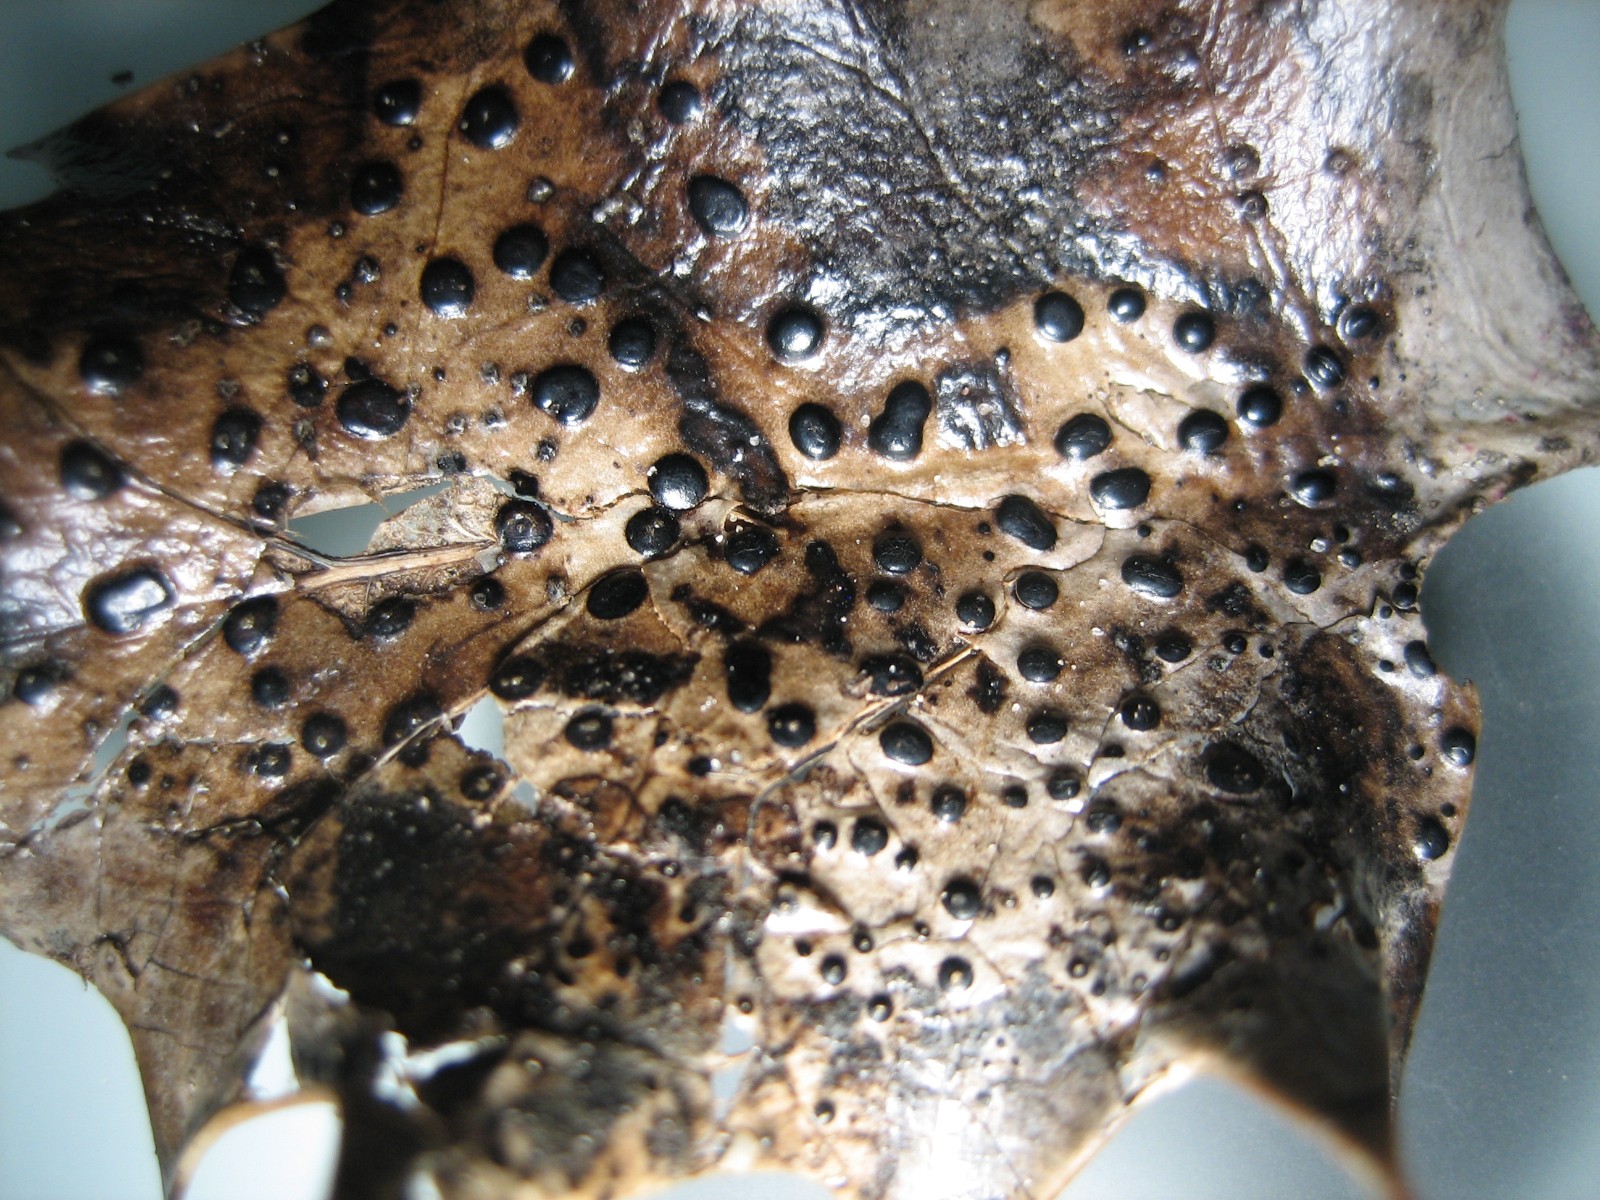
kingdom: Fungi
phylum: Ascomycota
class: Leotiomycetes
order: Phacidiales
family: Phacidiaceae
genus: Phacidium
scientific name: Phacidium lauri
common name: kristtorn-tandskive
